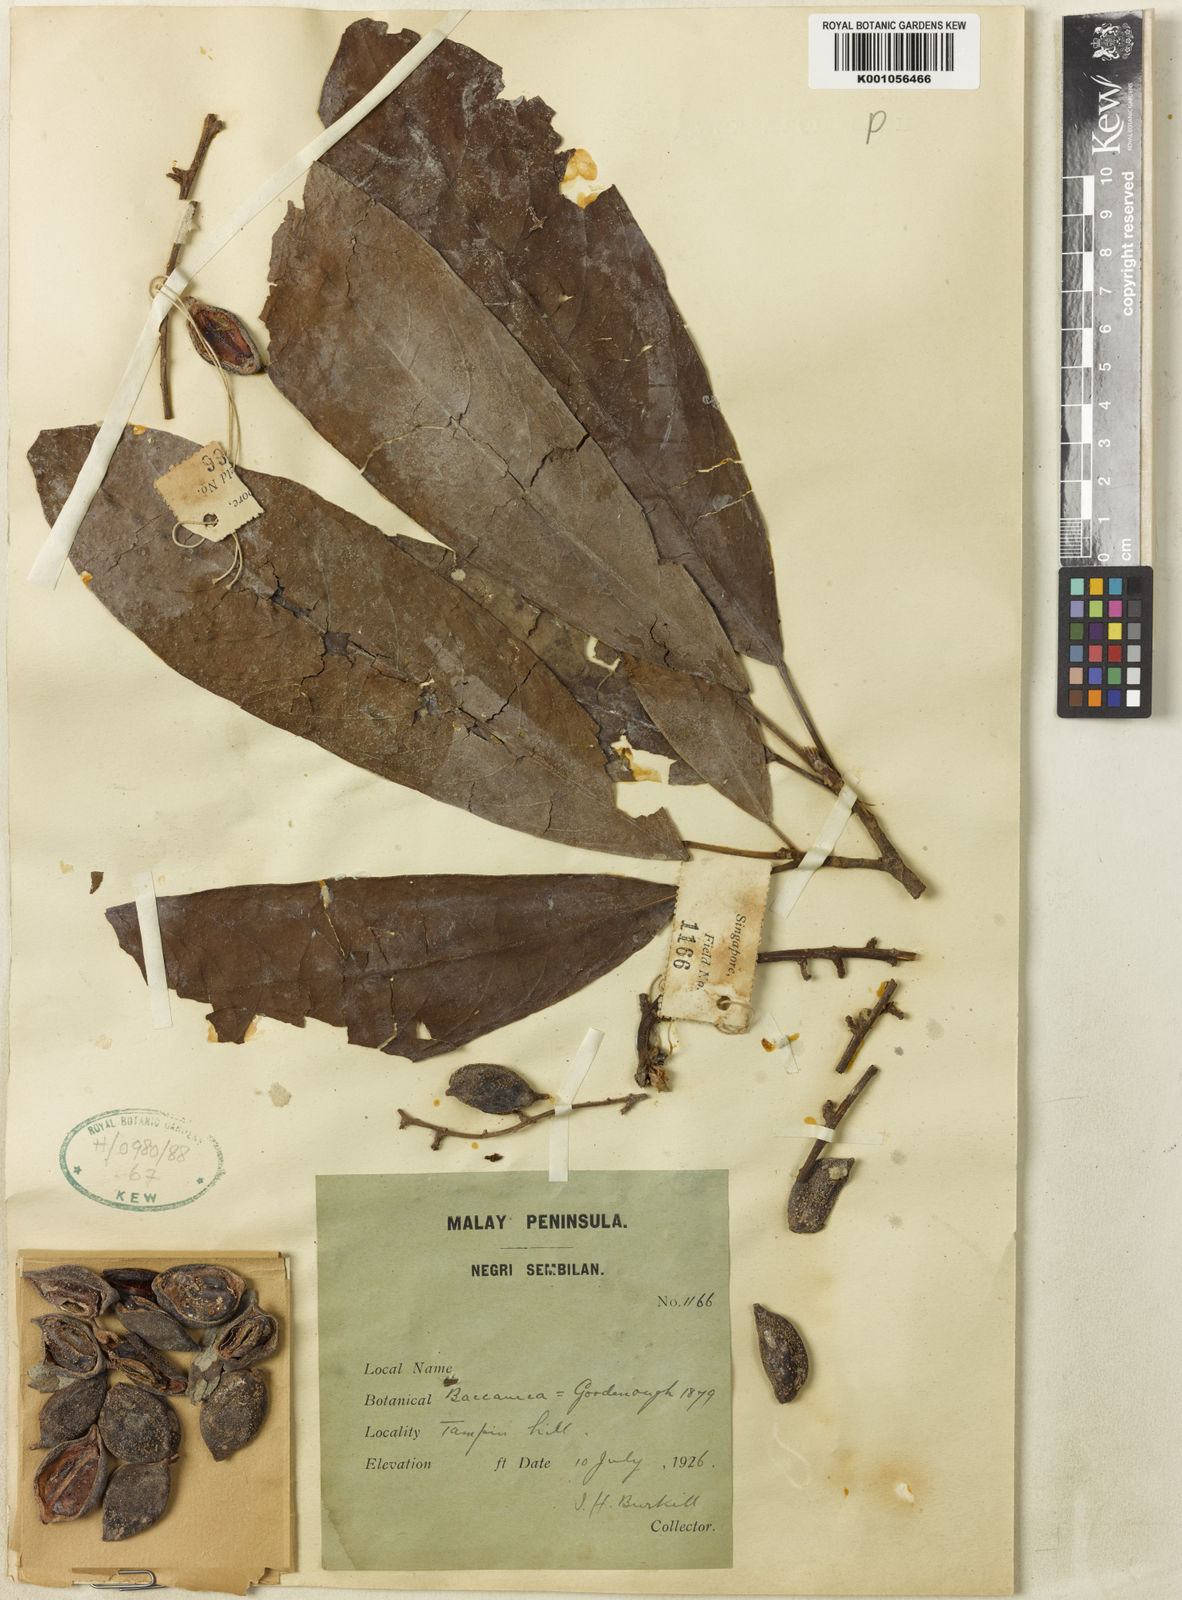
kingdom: Plantae
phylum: Tracheophyta
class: Magnoliopsida
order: Malpighiales
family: Phyllanthaceae
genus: Baccaurea
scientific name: Baccaurea ramiflora
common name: Baccaurea
